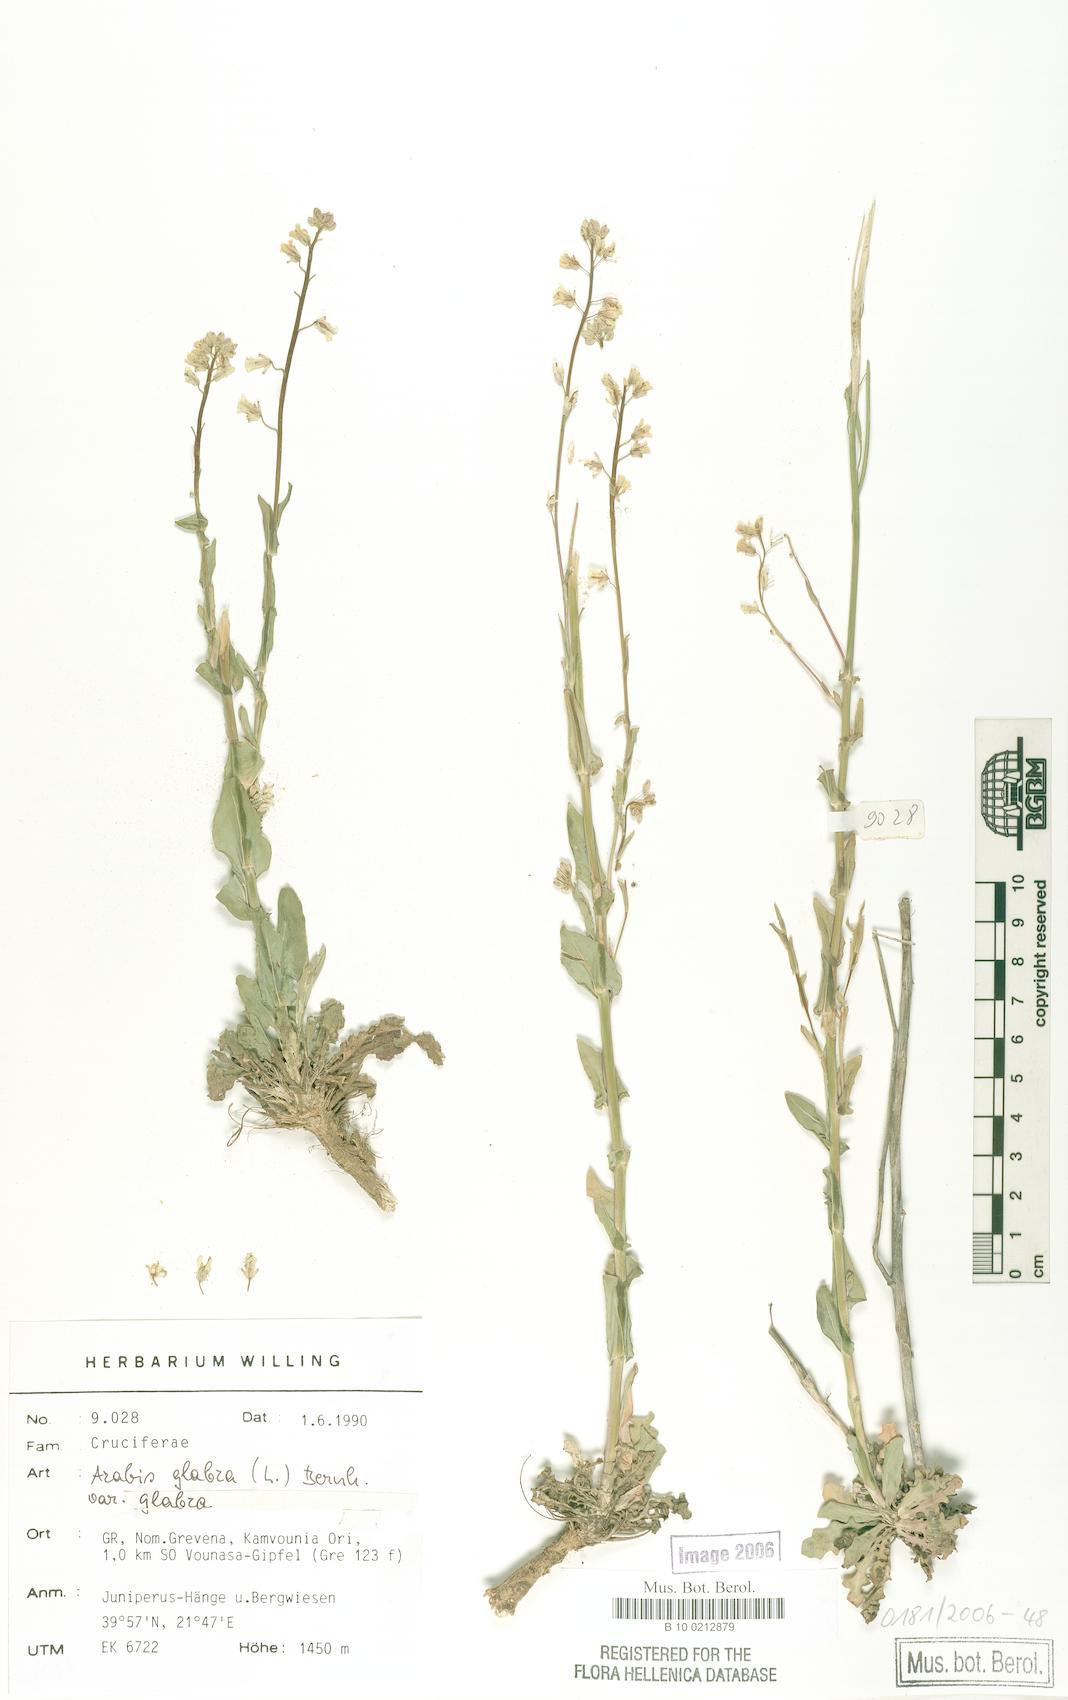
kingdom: Plantae
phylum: Tracheophyta
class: Magnoliopsida
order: Brassicales
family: Brassicaceae
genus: Turritis
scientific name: Turritis glabra
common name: Tower rockcress
